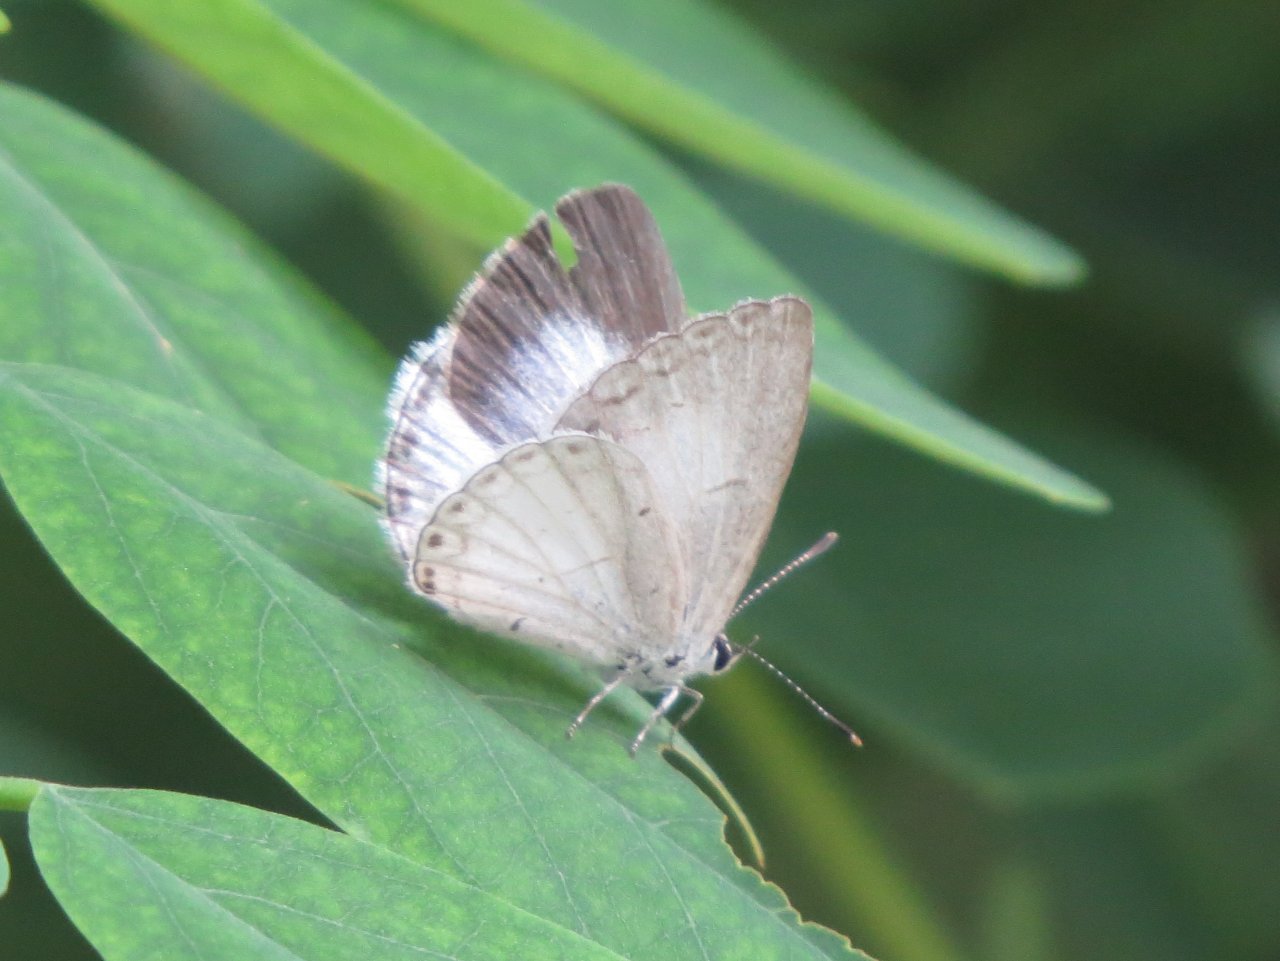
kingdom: Animalia
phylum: Arthropoda
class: Insecta
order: Lepidoptera
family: Lycaenidae
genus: Cyaniris
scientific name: Cyaniris neglecta
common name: Summer Azure
